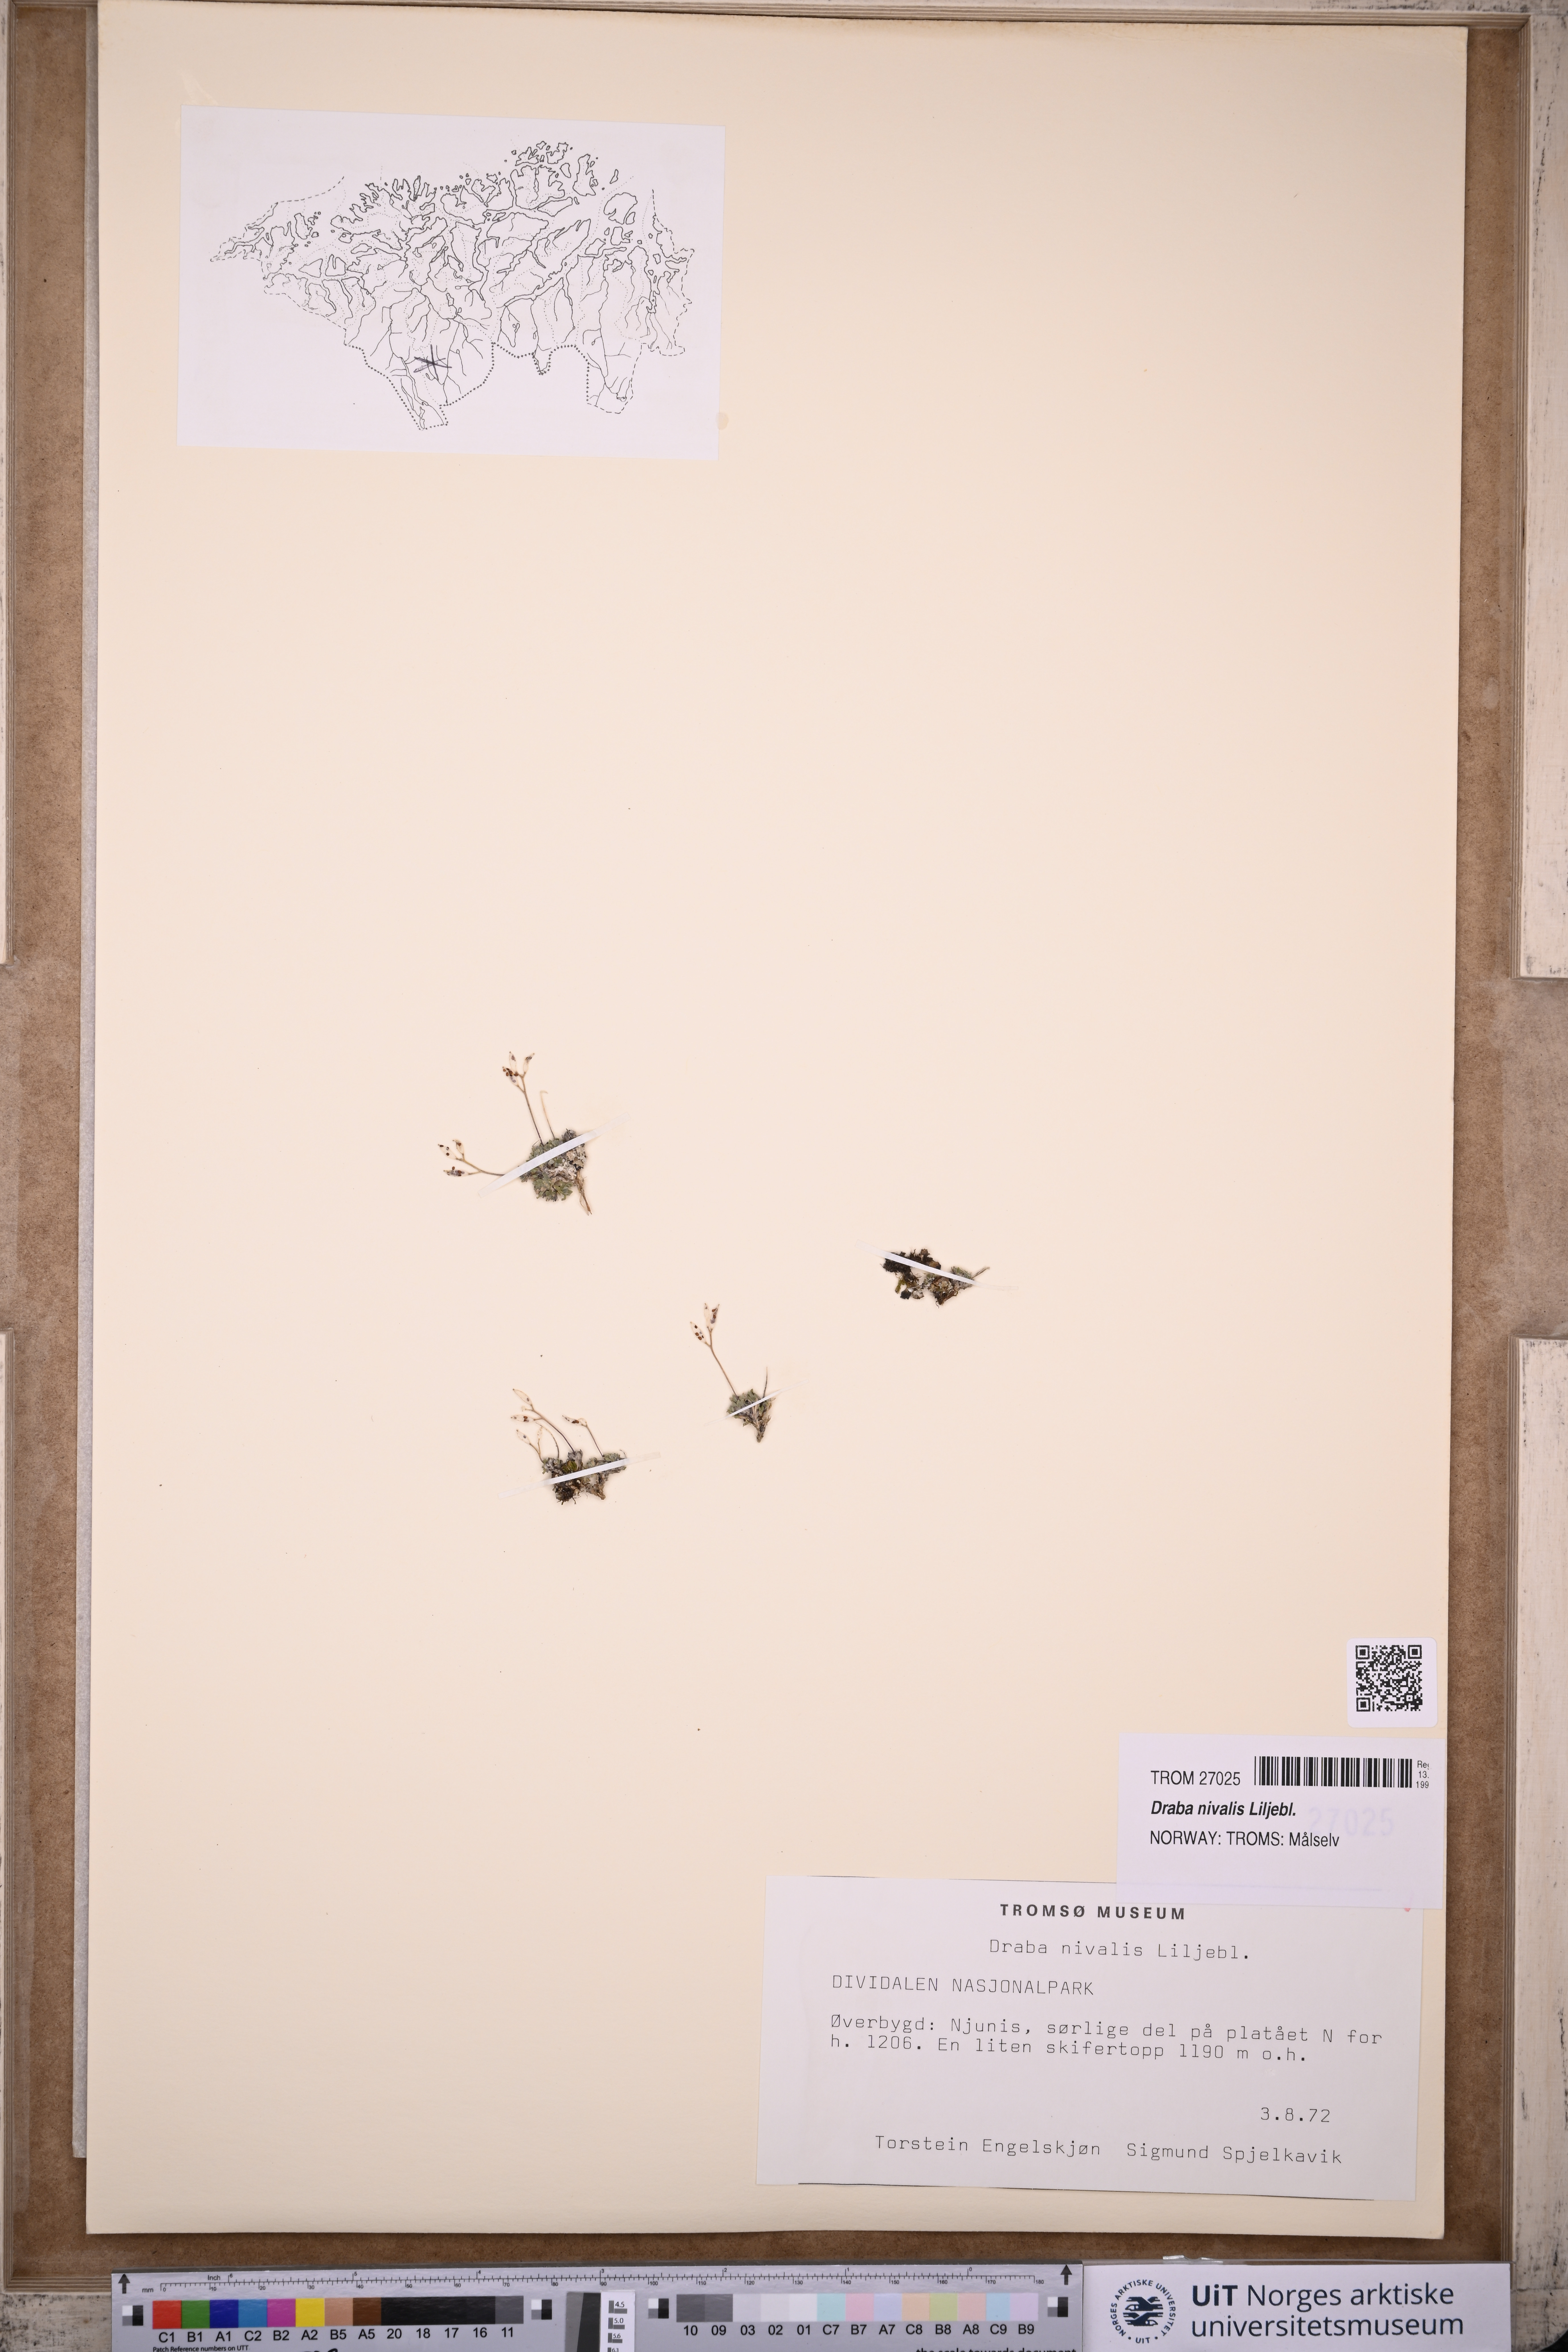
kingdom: Plantae
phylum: Tracheophyta
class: Magnoliopsida
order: Brassicales
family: Brassicaceae
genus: Draba
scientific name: Draba nivalis
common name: Snow draba
